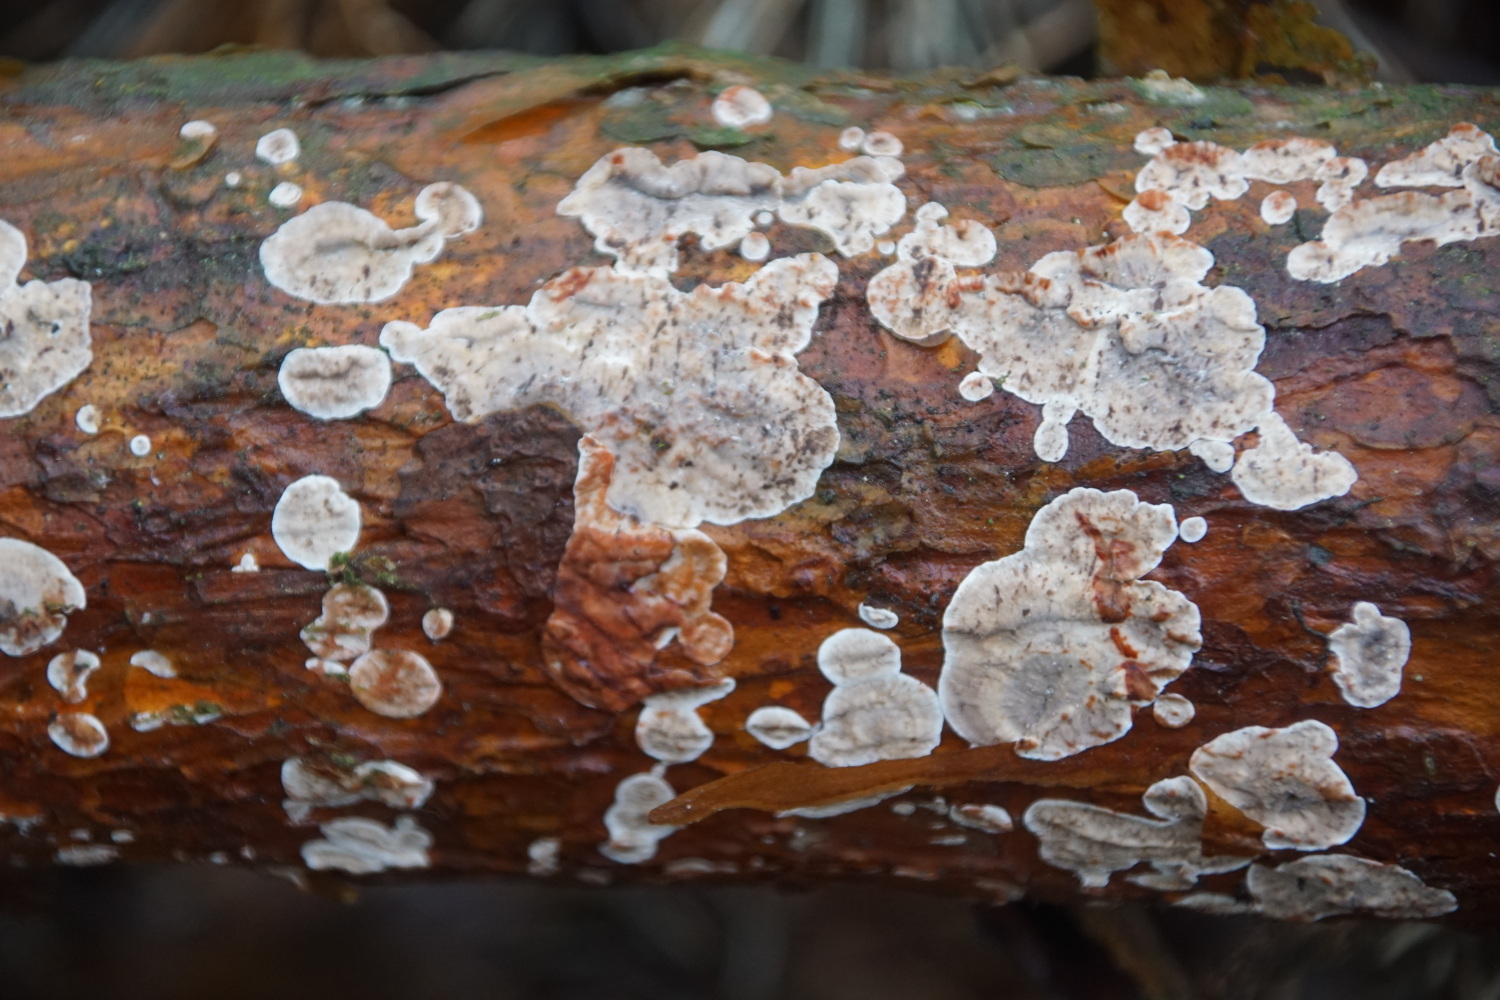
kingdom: Fungi
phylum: Basidiomycota
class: Agaricomycetes
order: Russulales
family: Stereaceae
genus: Stereum
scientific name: Stereum sanguinolentum
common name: blødende lædersvamp
